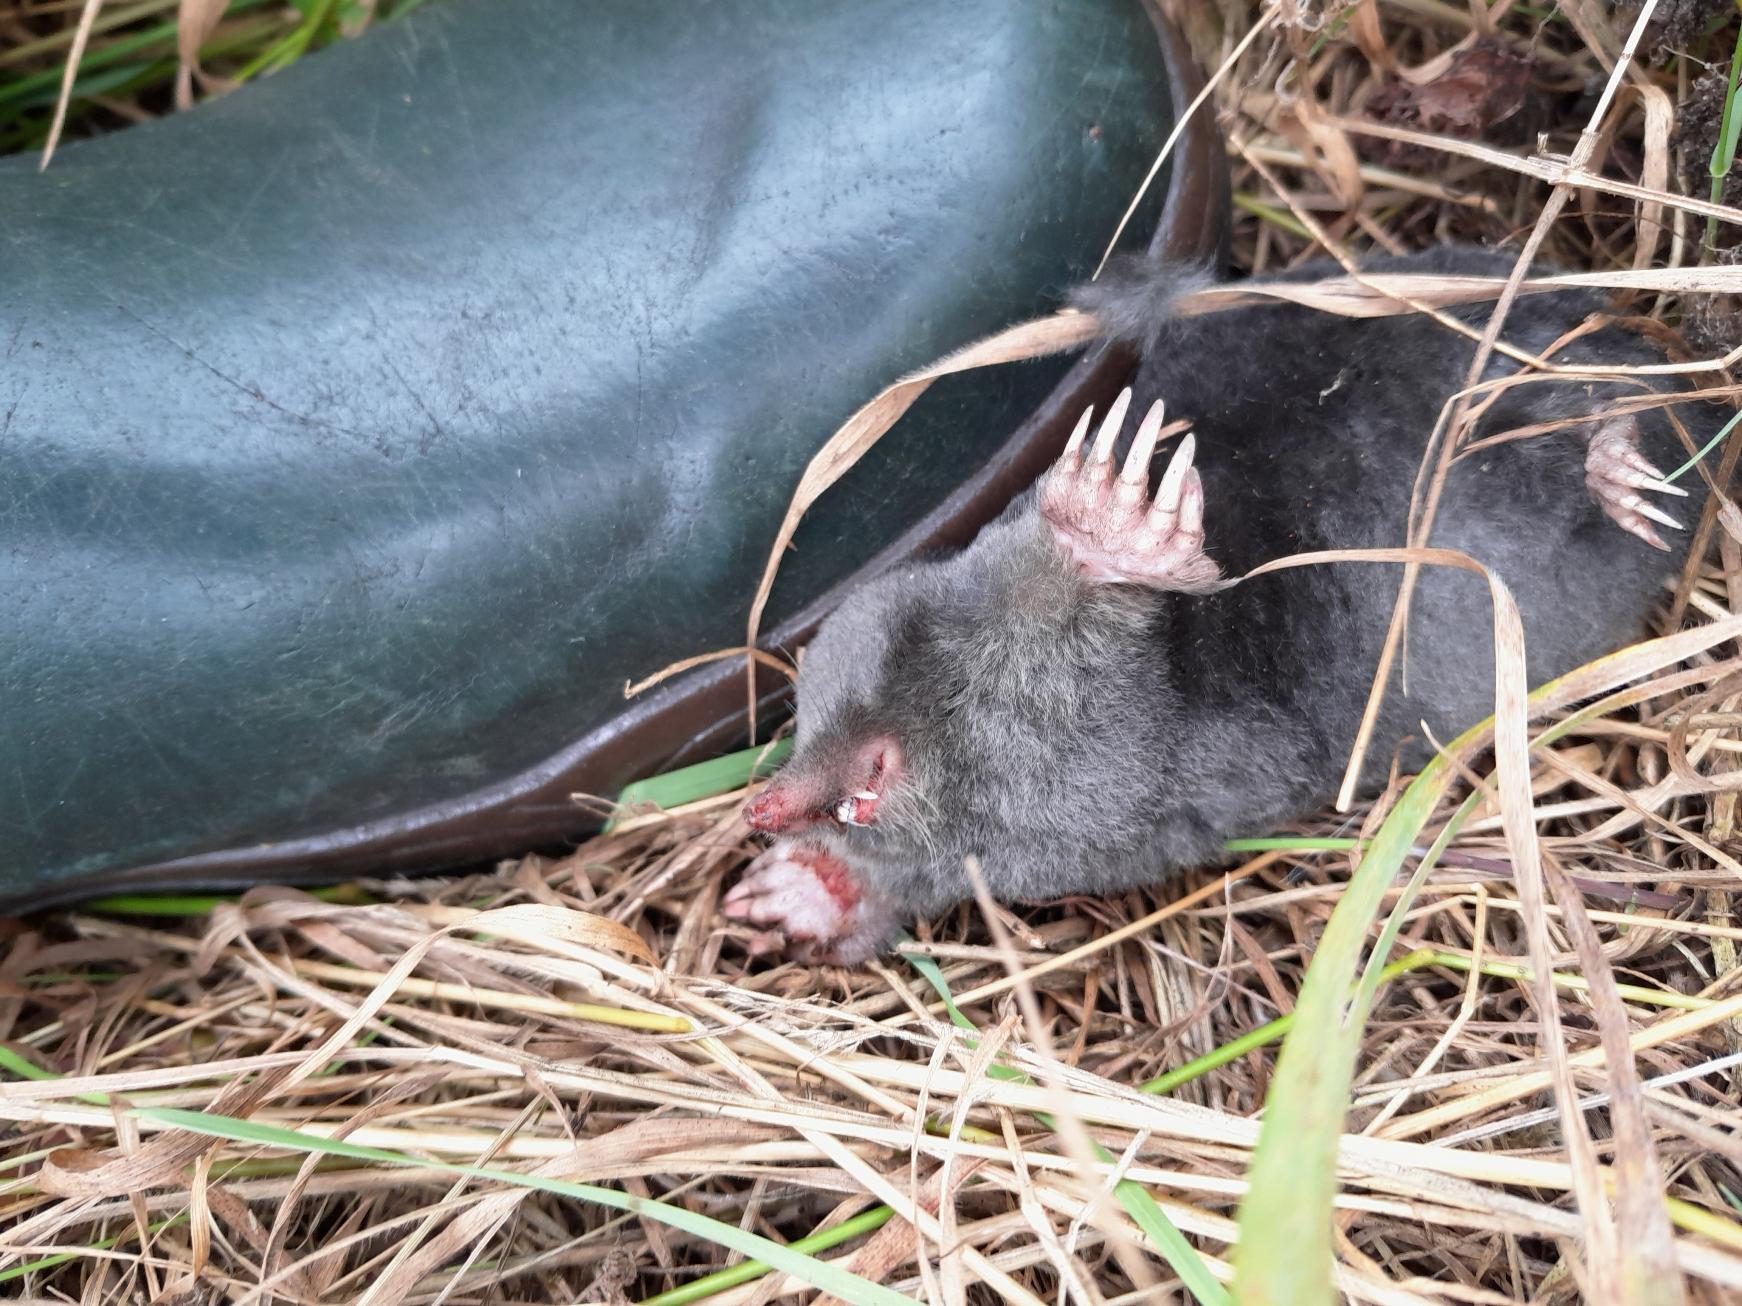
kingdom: Animalia
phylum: Chordata
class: Mammalia
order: Soricomorpha
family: Talpidae
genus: Talpa
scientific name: Talpa europaea
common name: Muldvarp
